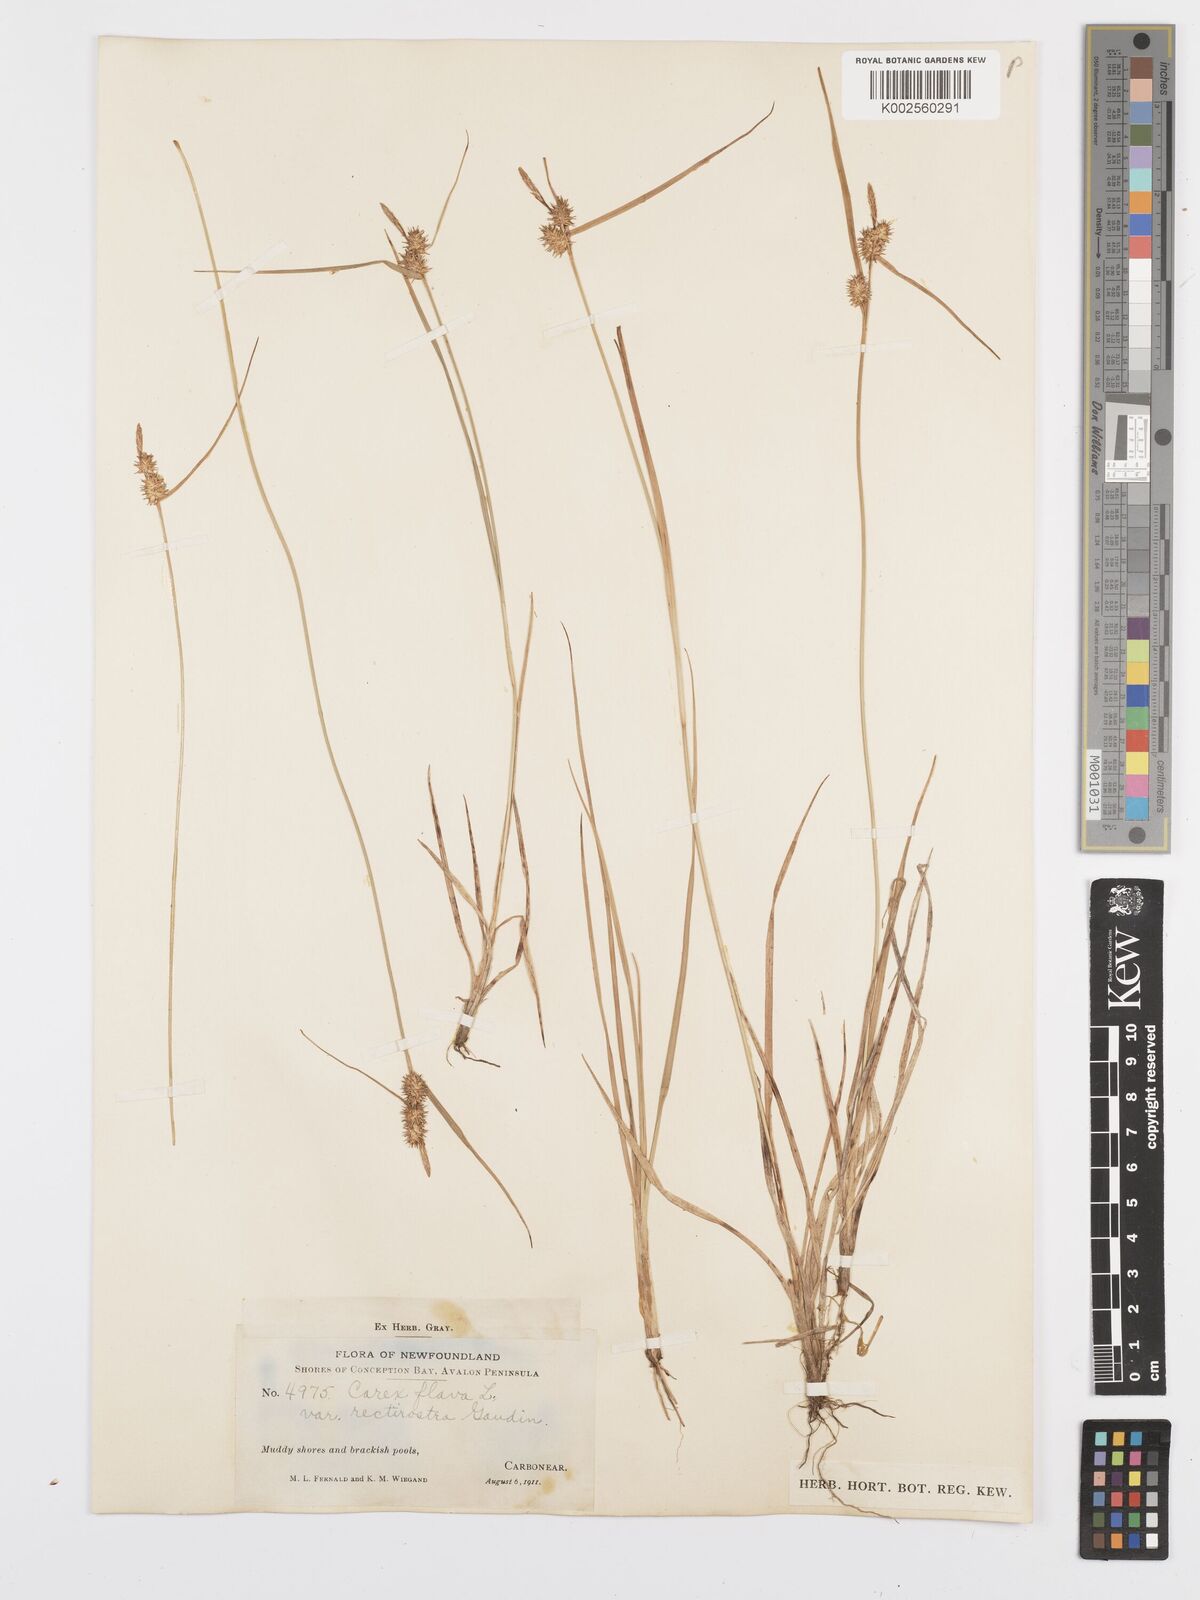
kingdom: Plantae
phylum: Tracheophyta
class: Liliopsida
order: Poales
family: Cyperaceae
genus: Carex
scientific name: Carex flava
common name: Large yellow-sedge
